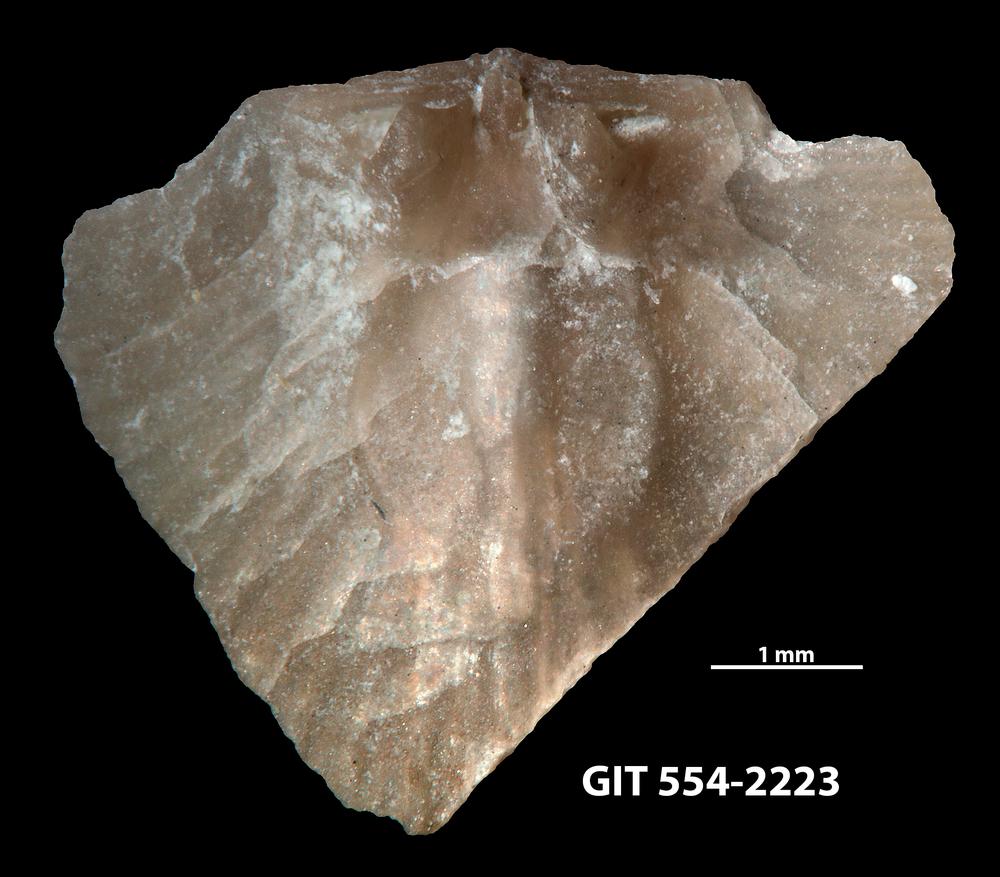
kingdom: Animalia
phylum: Brachiopoda
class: Rhynchonellata
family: Dalmanellidae
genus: Onniella
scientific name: Onniella trigona
